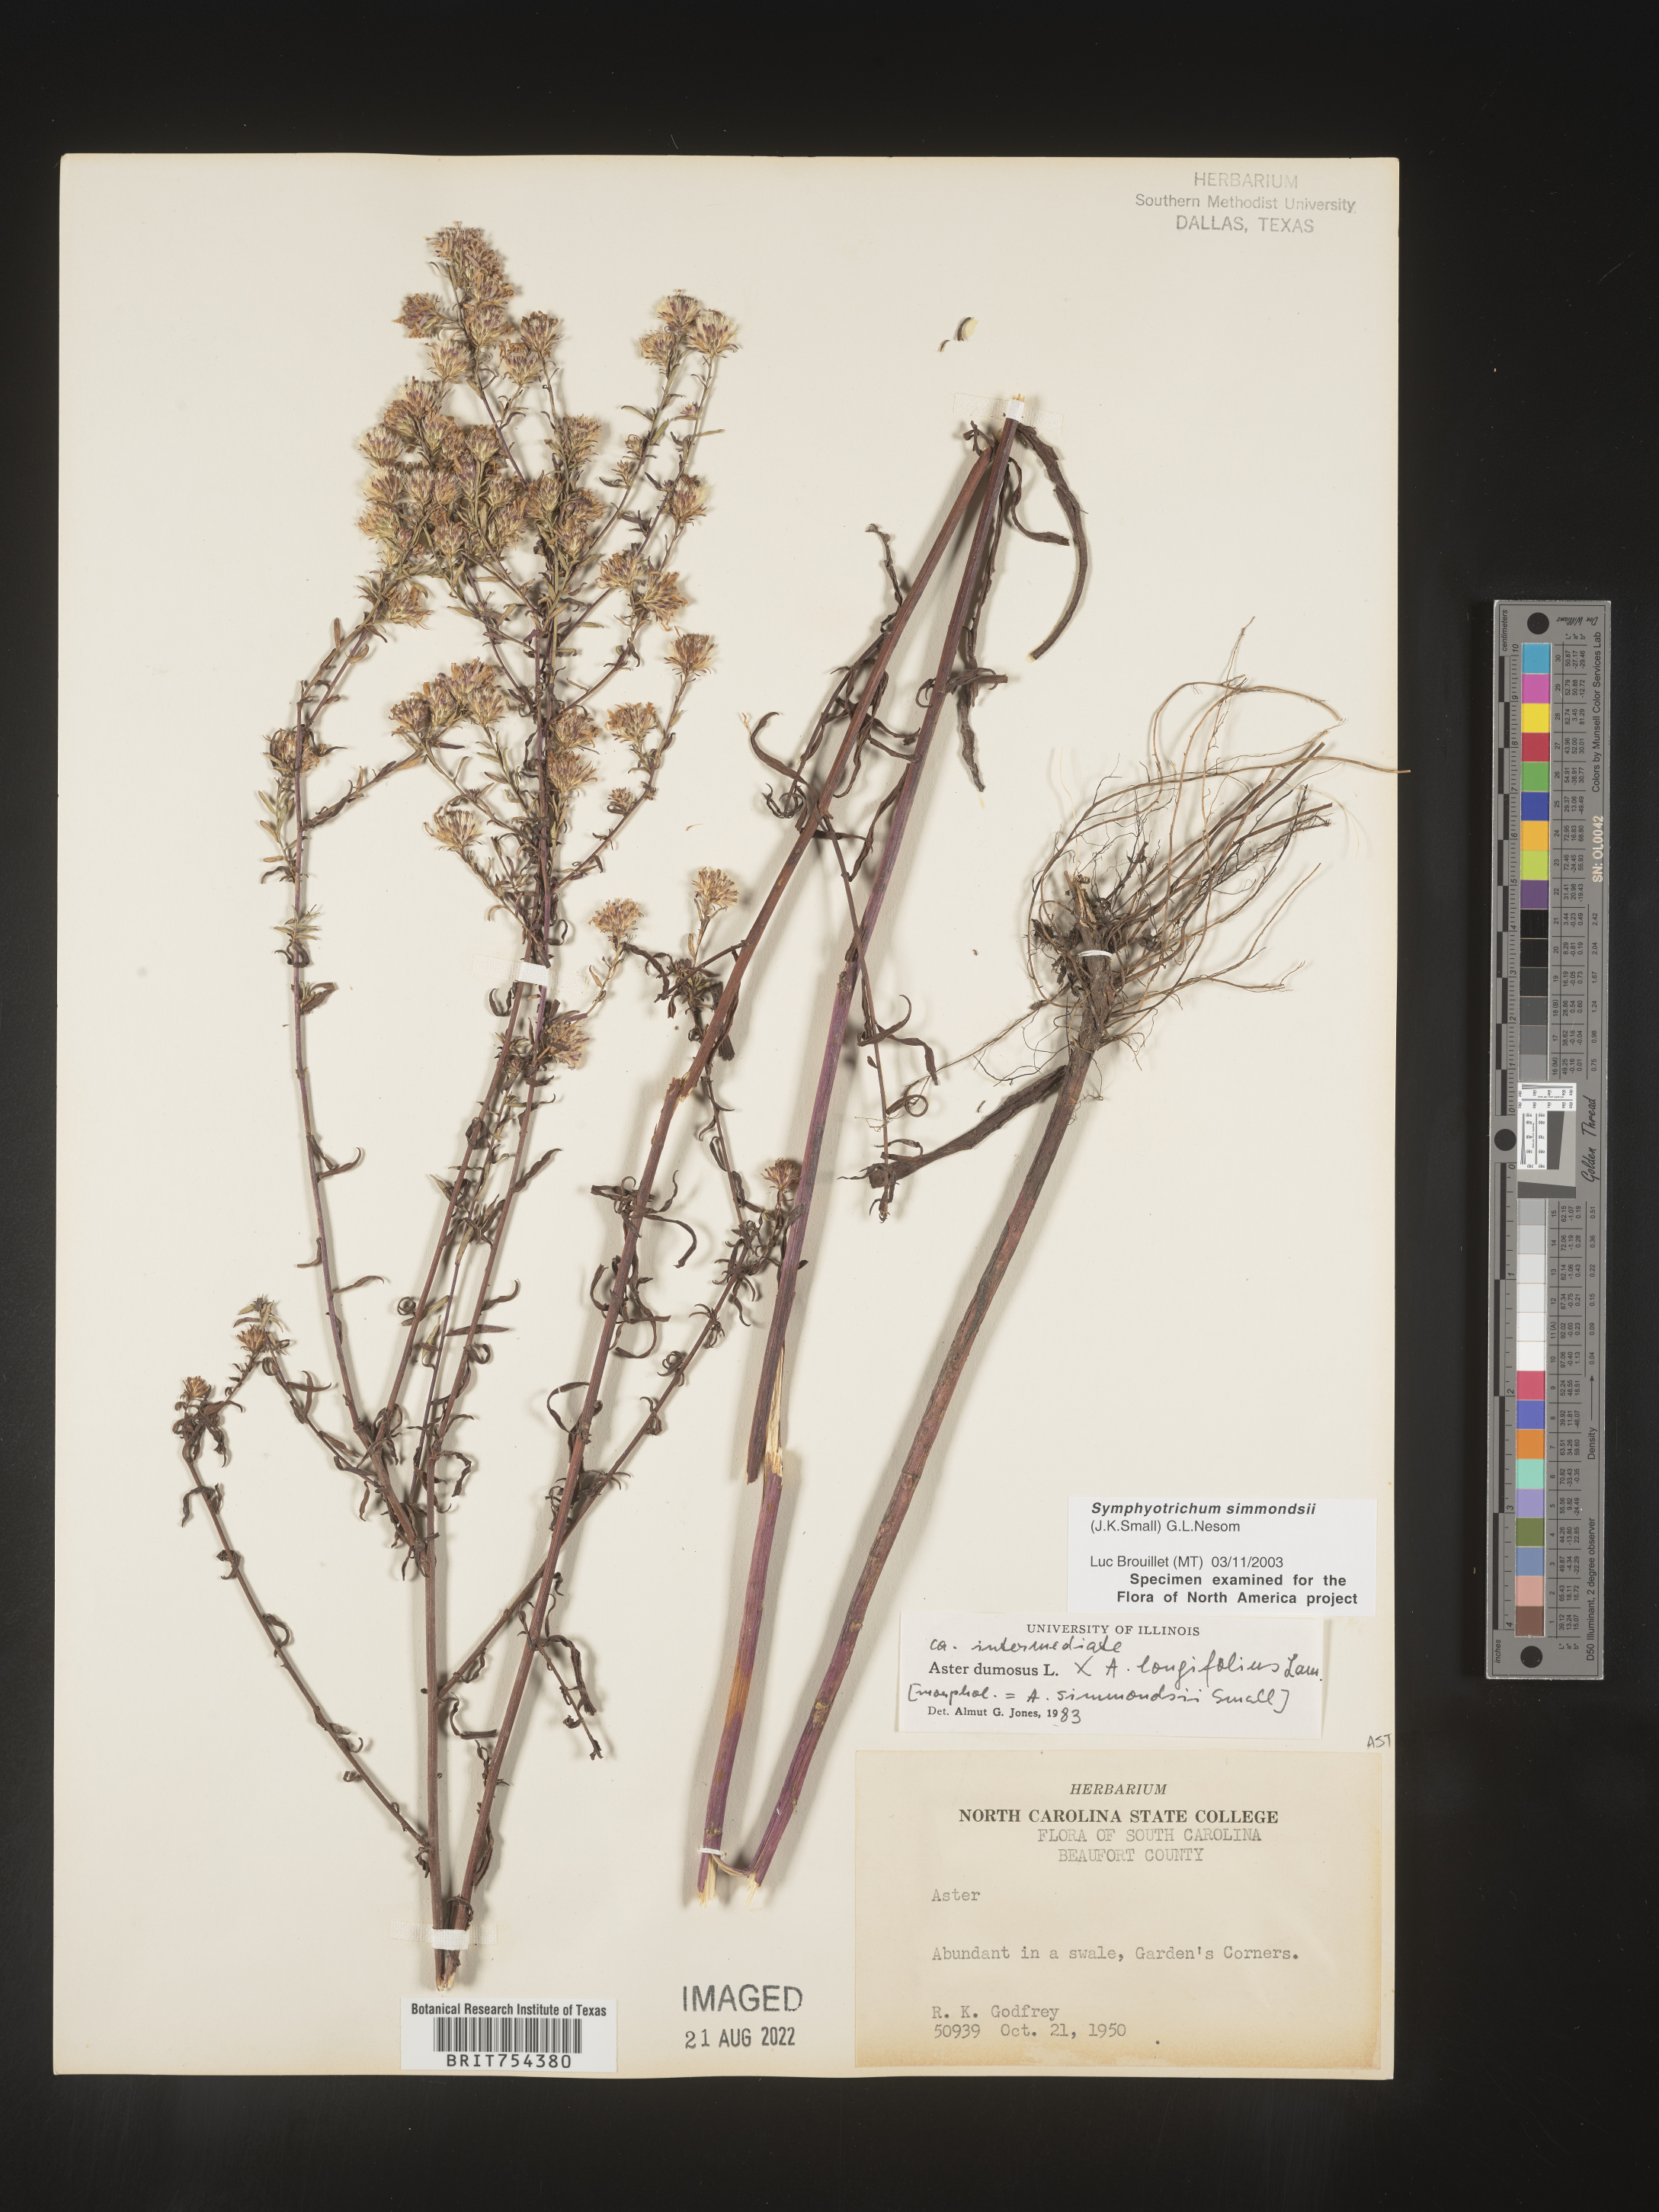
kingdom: Plantae
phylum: Tracheophyta
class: Magnoliopsida
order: Asterales
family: Asteraceae
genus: Symphyotrichum
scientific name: Symphyotrichum simmondsii
